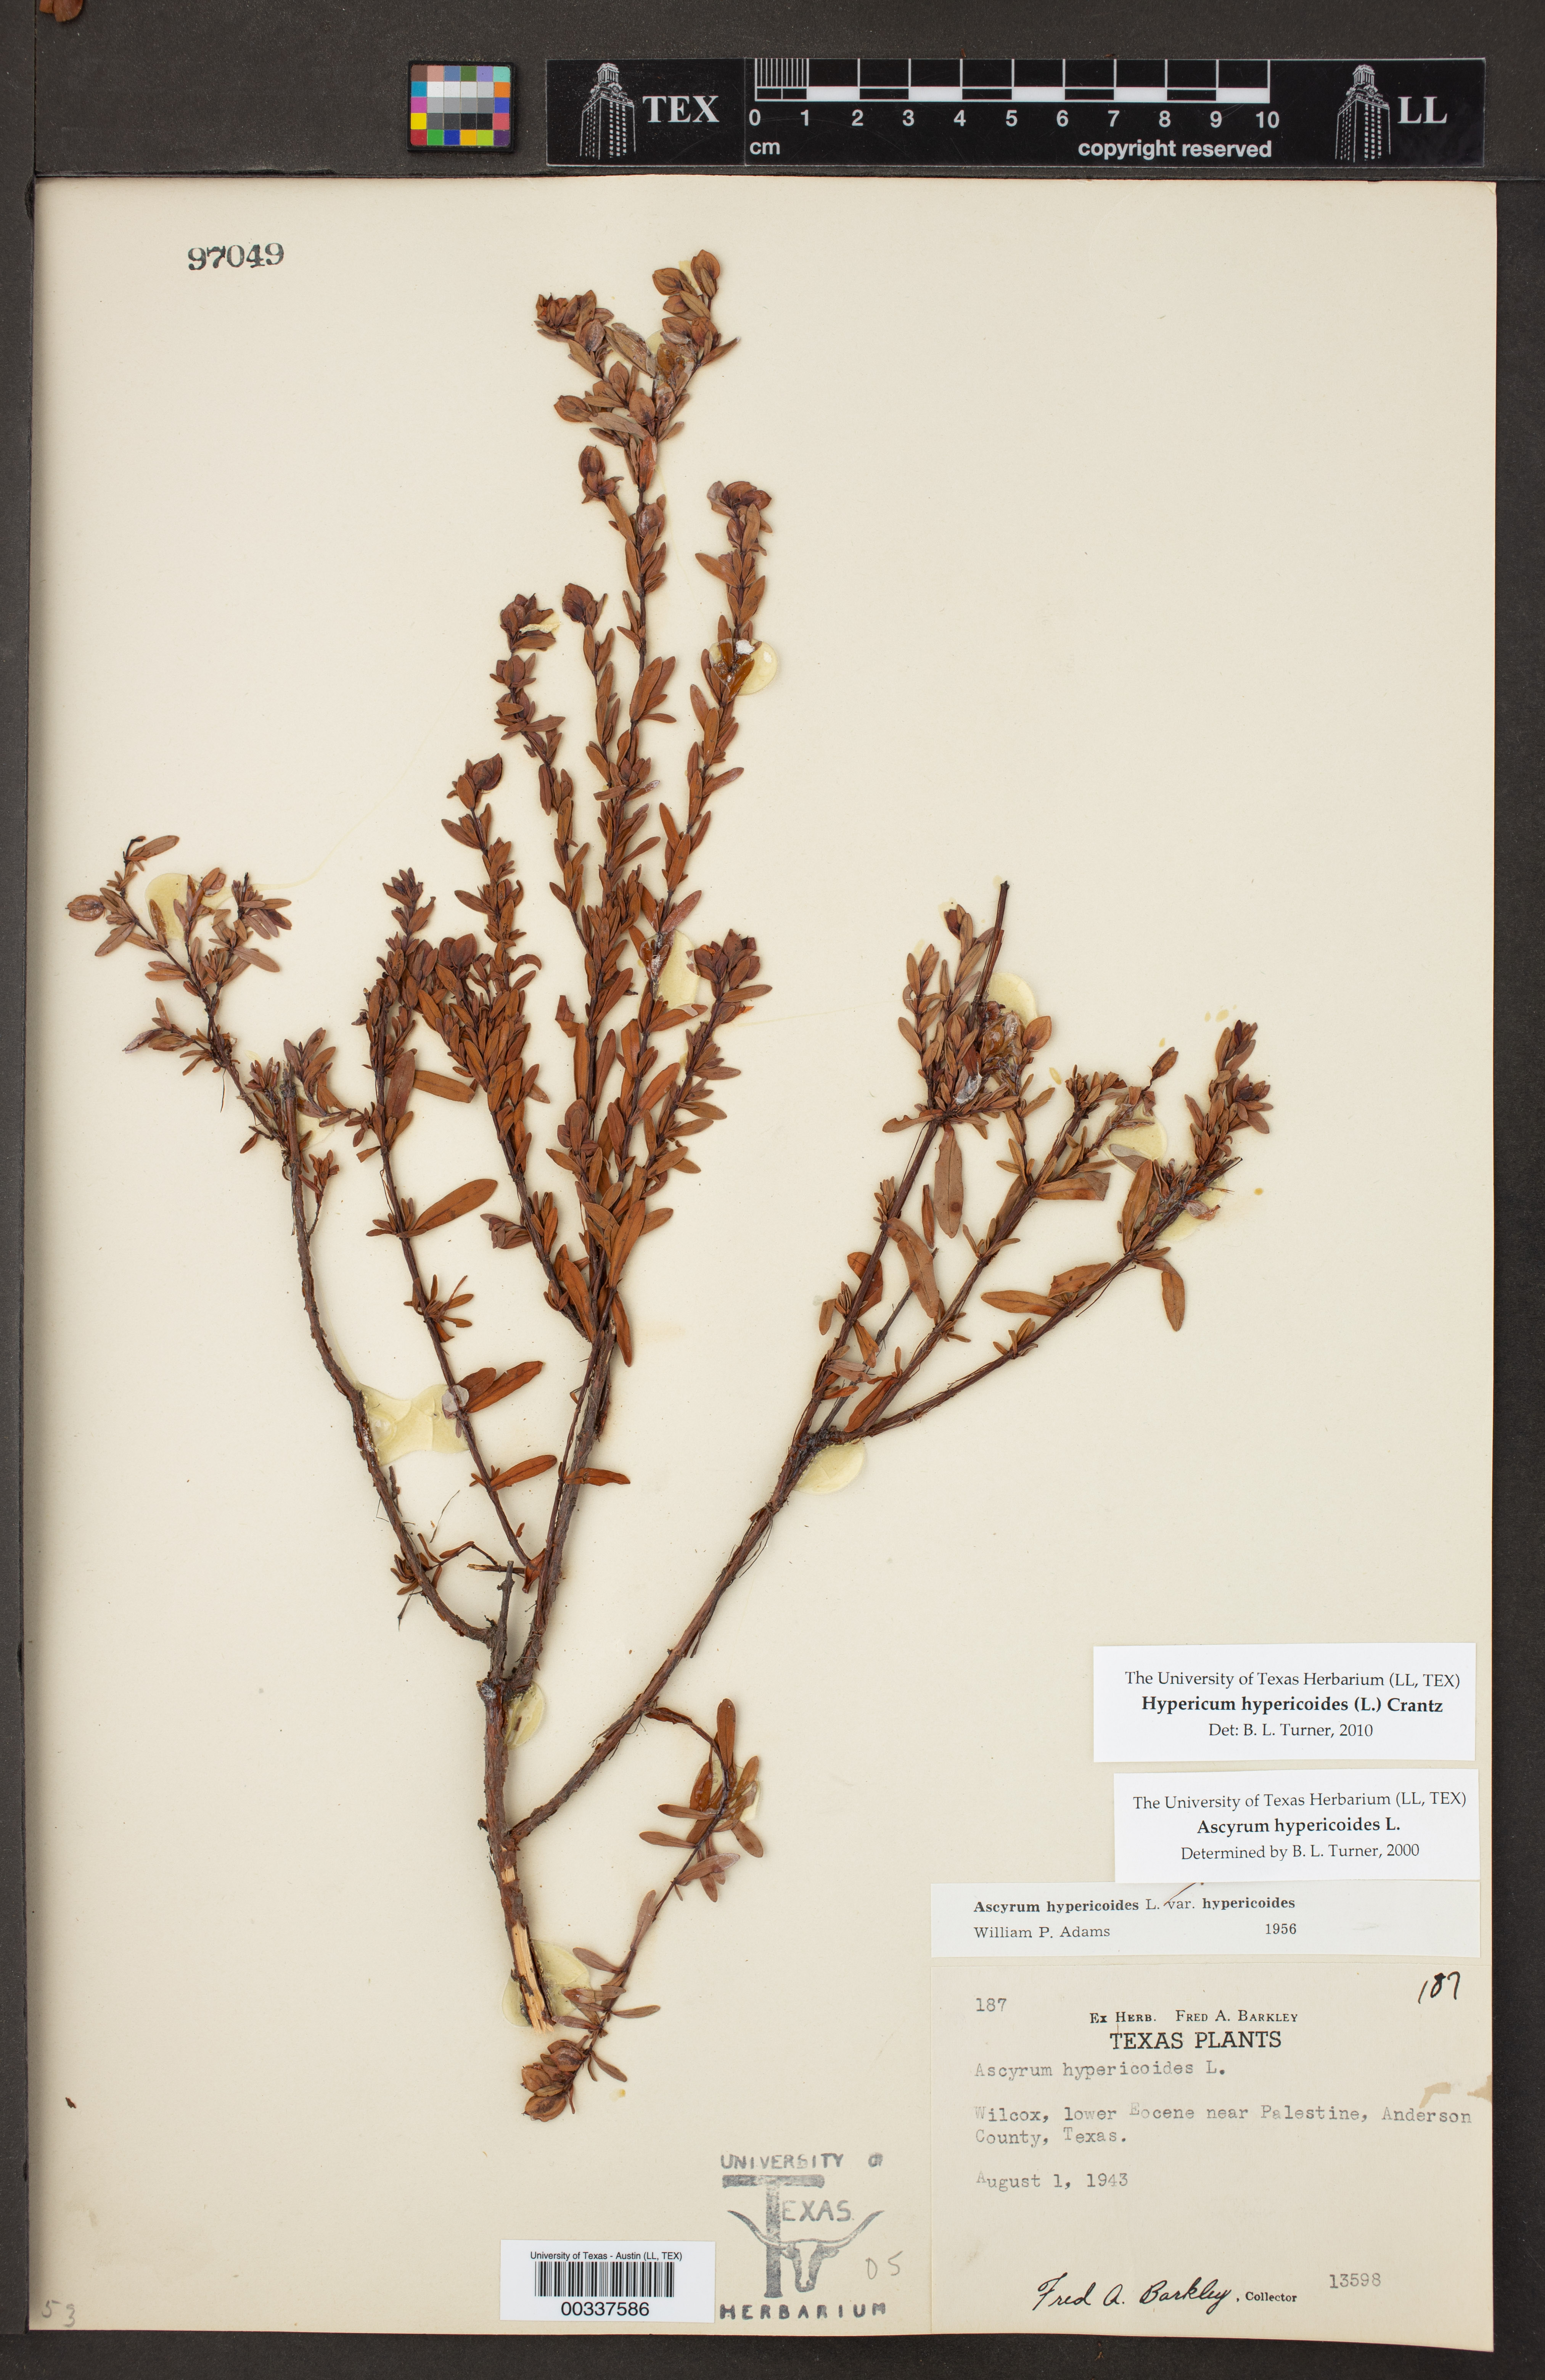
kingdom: Plantae
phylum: Tracheophyta
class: Magnoliopsida
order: Malpighiales
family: Hypericaceae
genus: Hypericum
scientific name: Hypericum hypericoides
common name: St. andrew's cross
